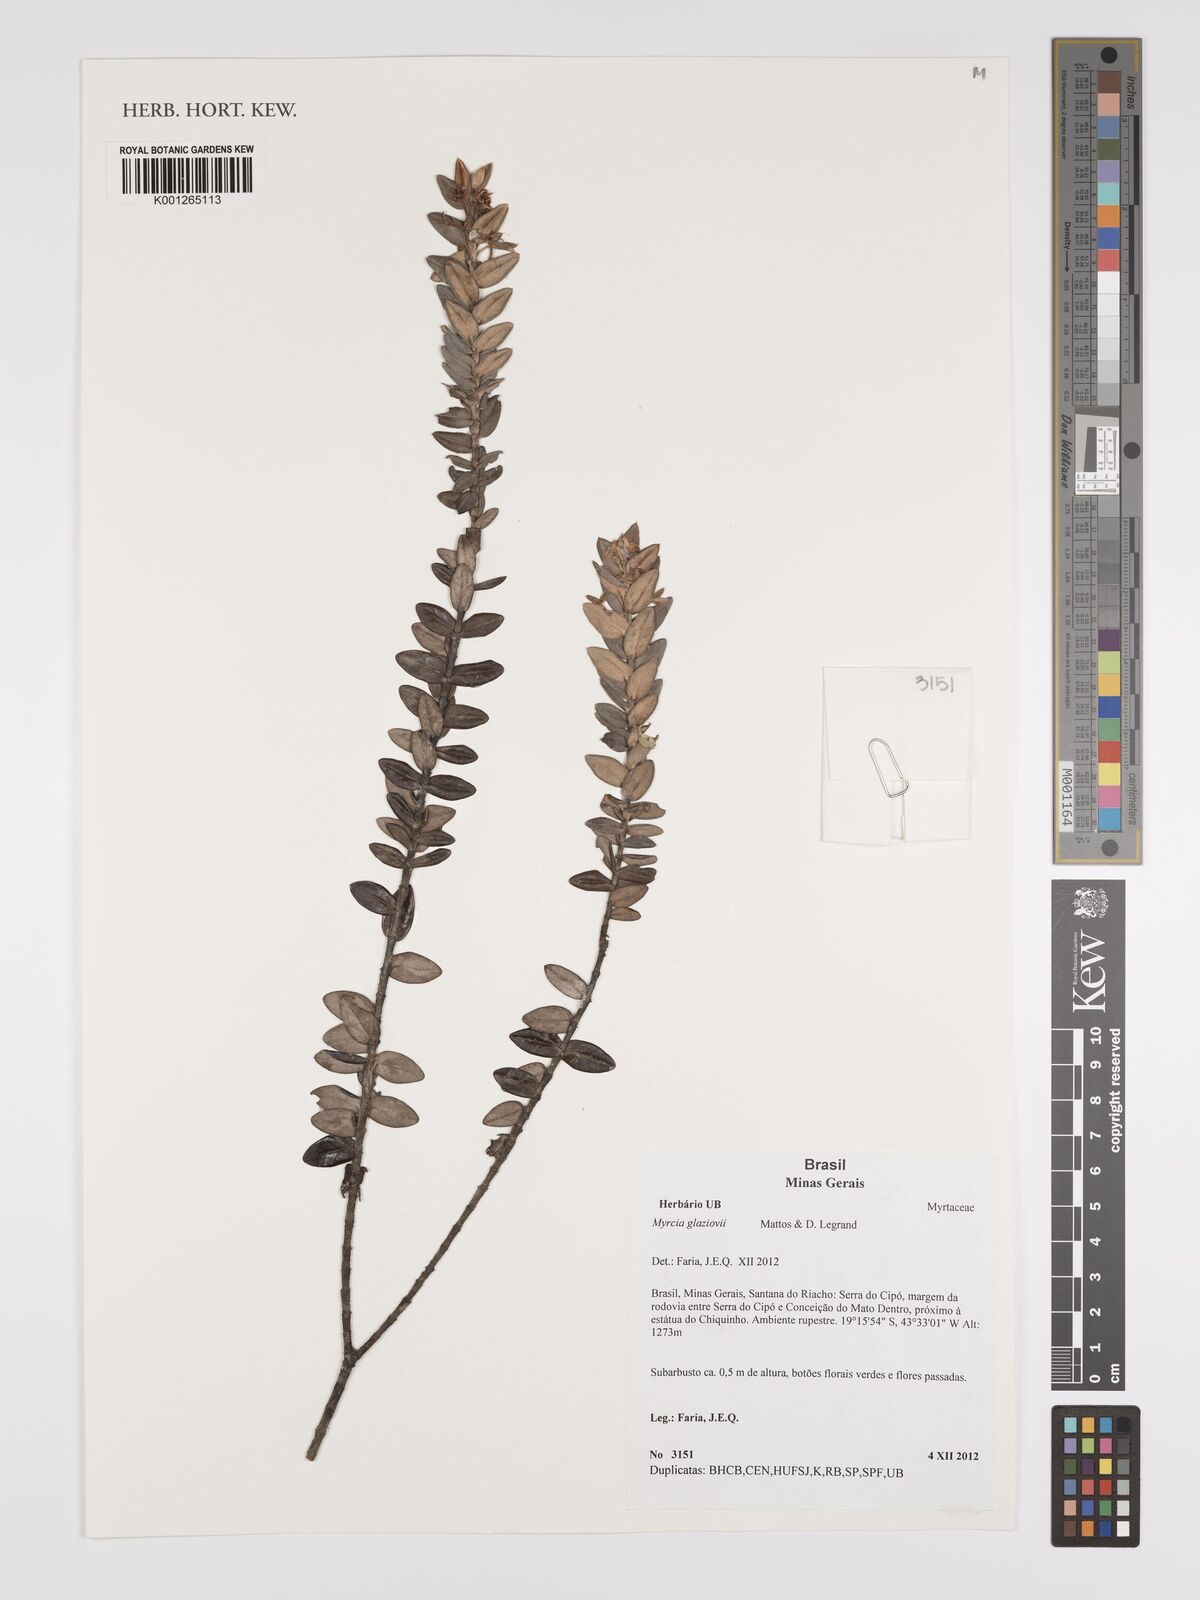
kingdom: Plantae
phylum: Tracheophyta
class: Magnoliopsida
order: Myrtales
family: Myrtaceae
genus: Myrcia
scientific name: Myrcia glaziovii
